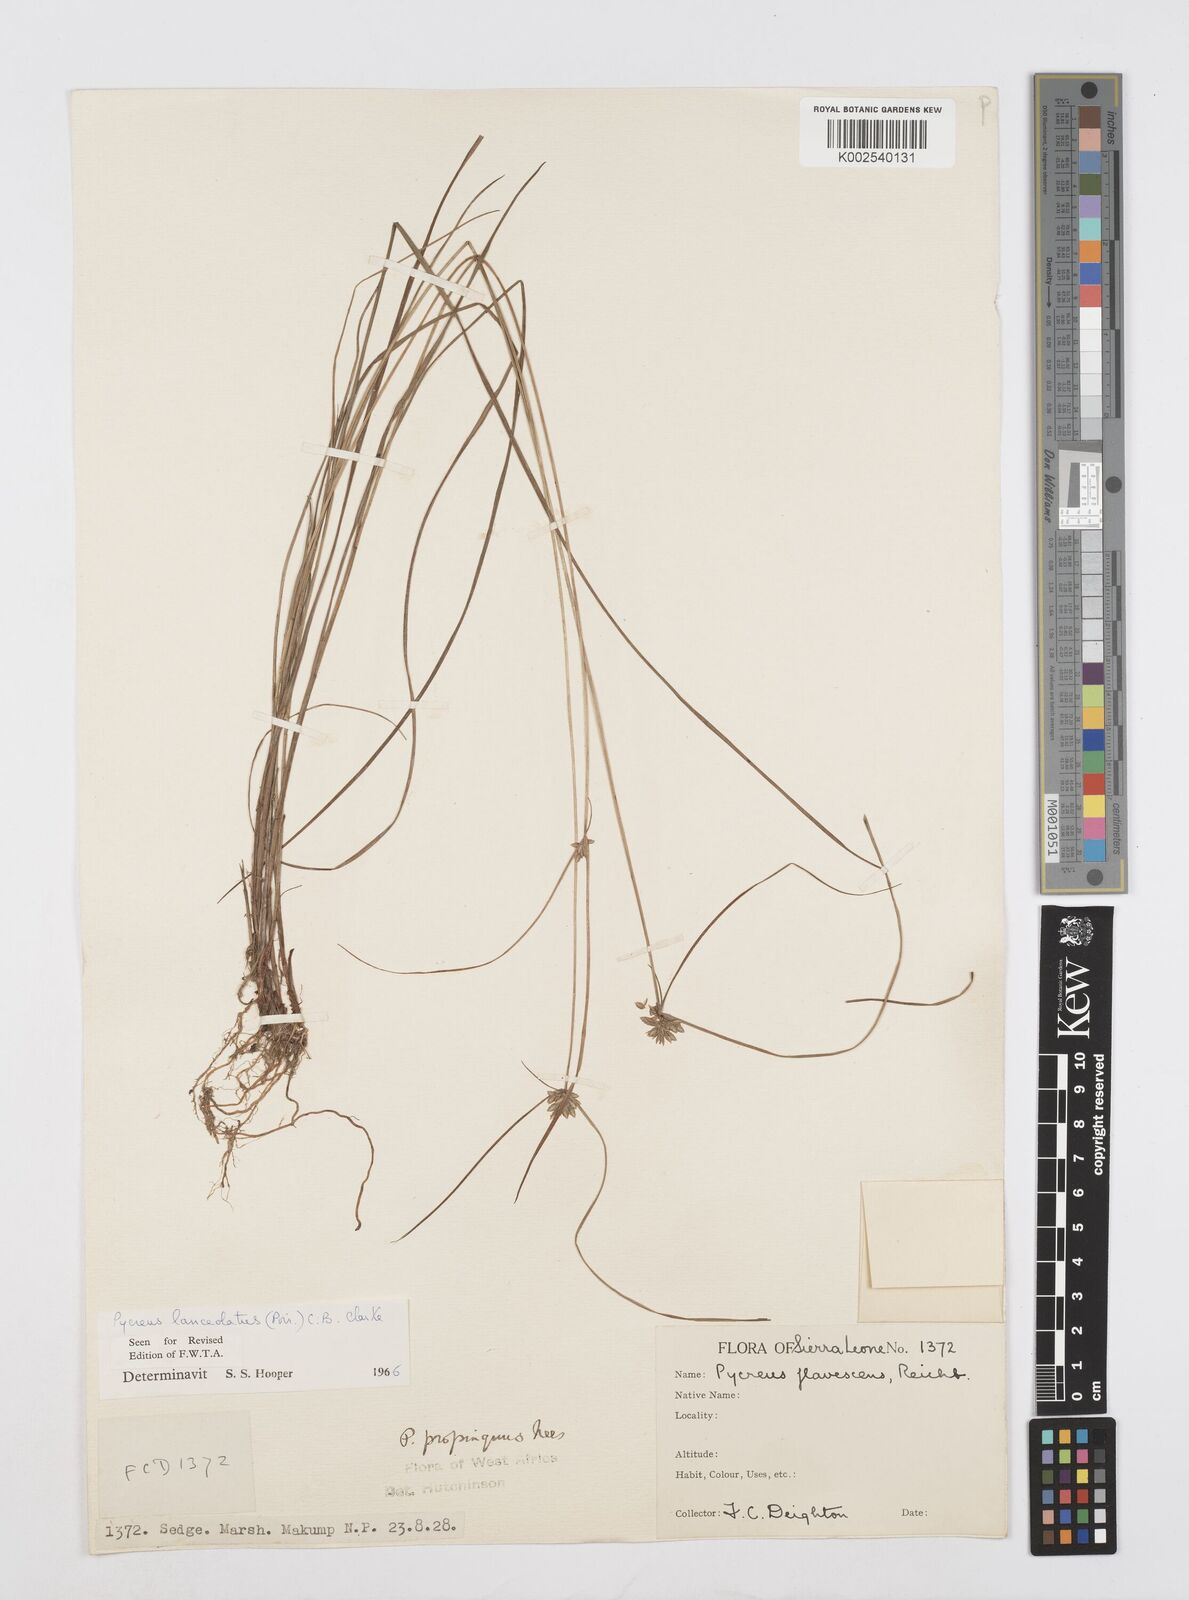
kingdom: Plantae
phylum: Tracheophyta
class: Liliopsida
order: Poales
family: Cyperaceae
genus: Cyperus
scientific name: Cyperus
